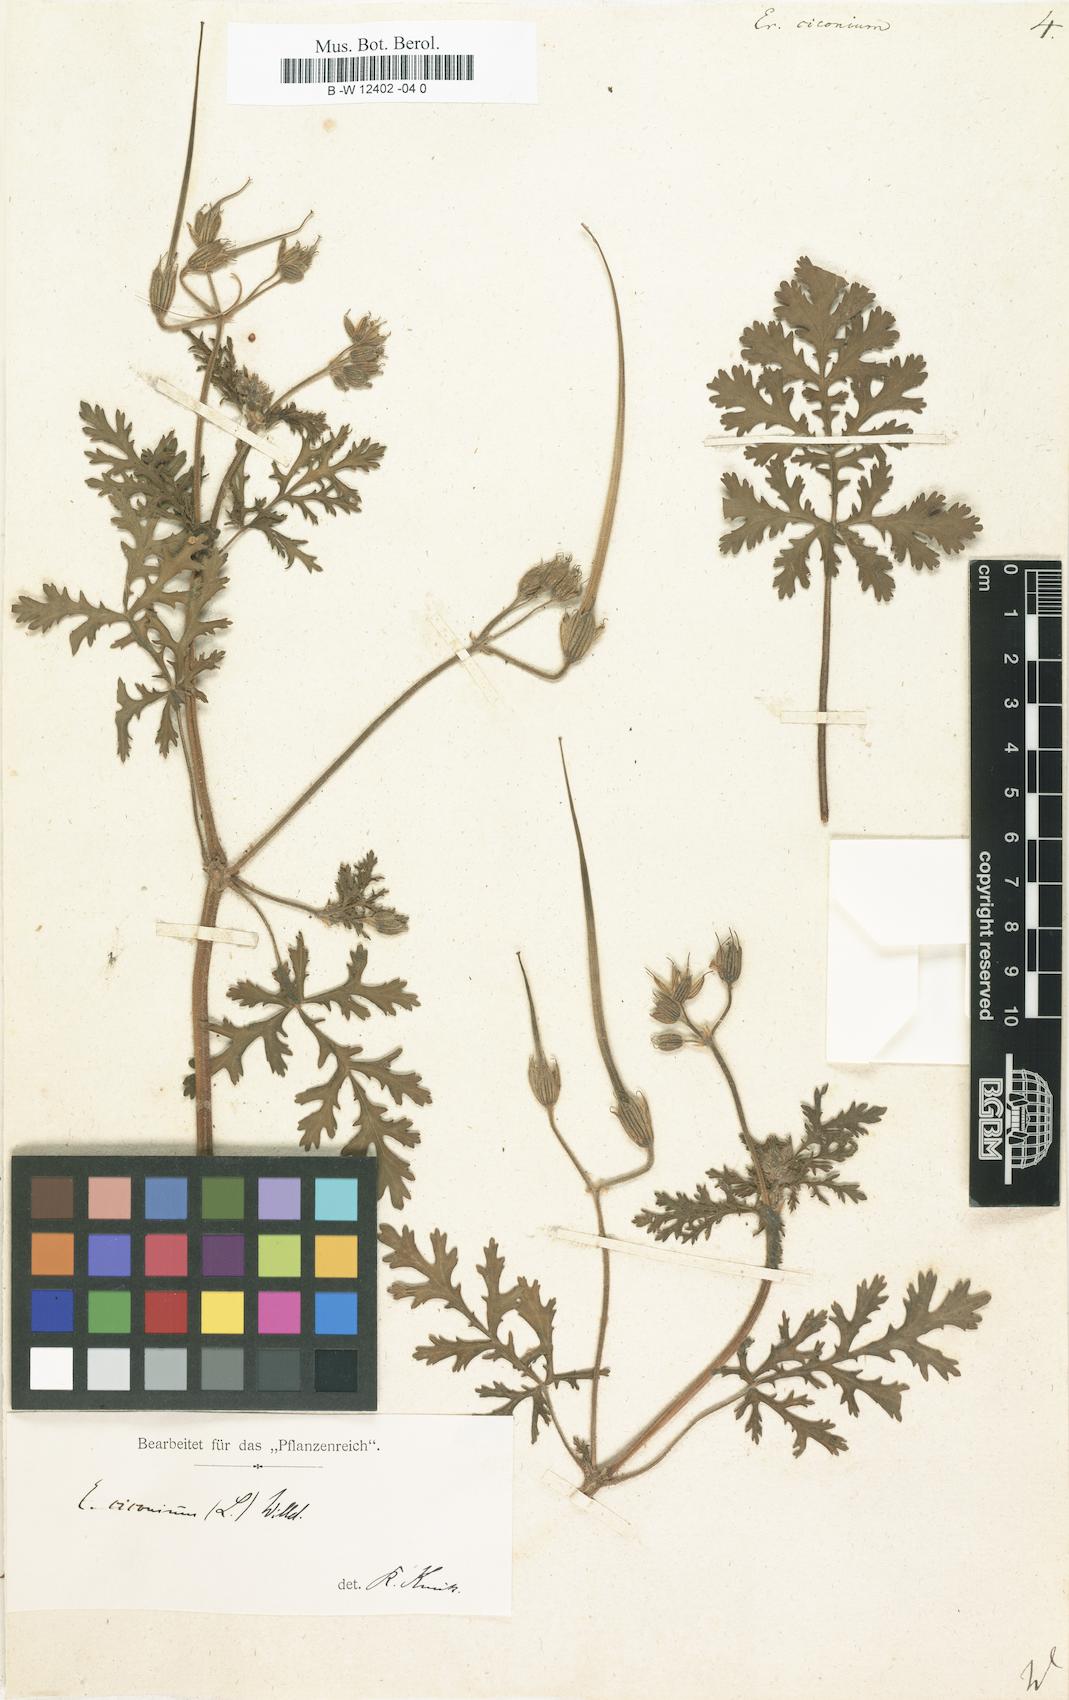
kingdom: Plantae
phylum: Tracheophyta
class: Magnoliopsida
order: Geraniales
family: Geraniaceae
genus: Erodium
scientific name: Erodium ciconium
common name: Common stork's bill
